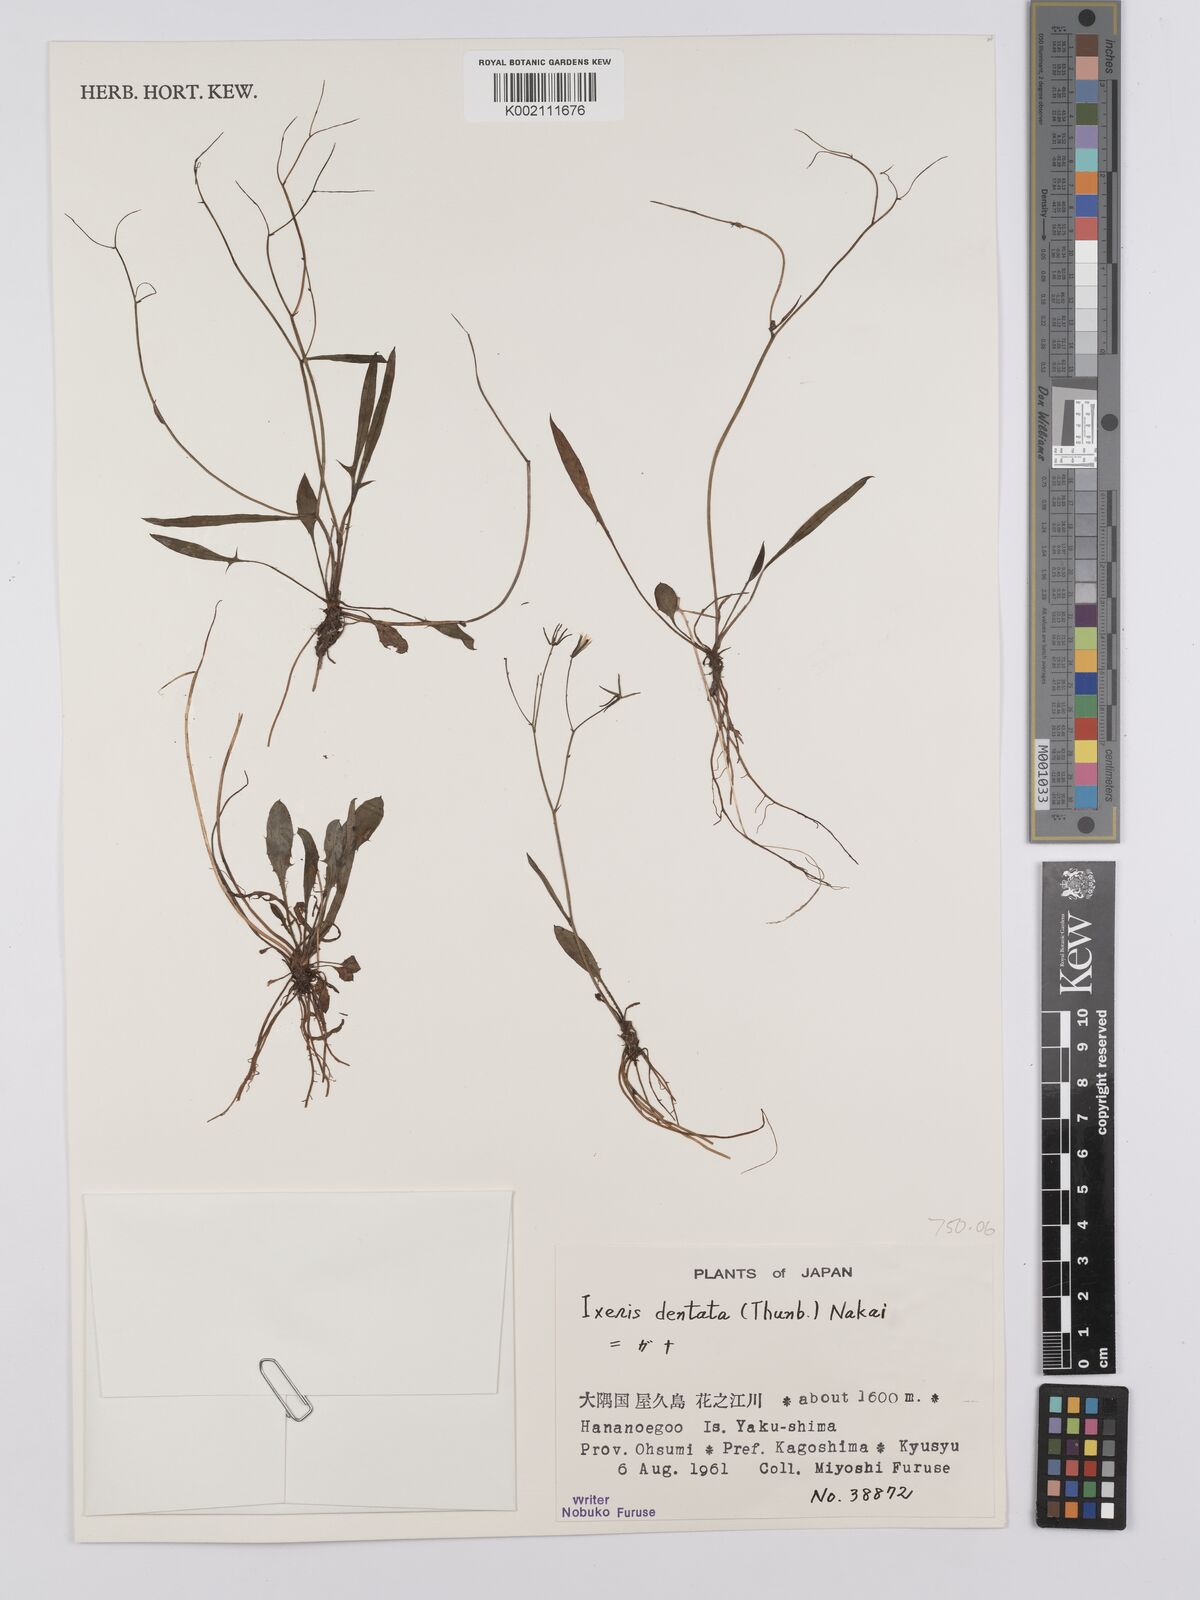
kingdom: Plantae
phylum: Tracheophyta
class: Magnoliopsida
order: Asterales
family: Asteraceae
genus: Ixeridium
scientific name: Ixeridium dentatum
